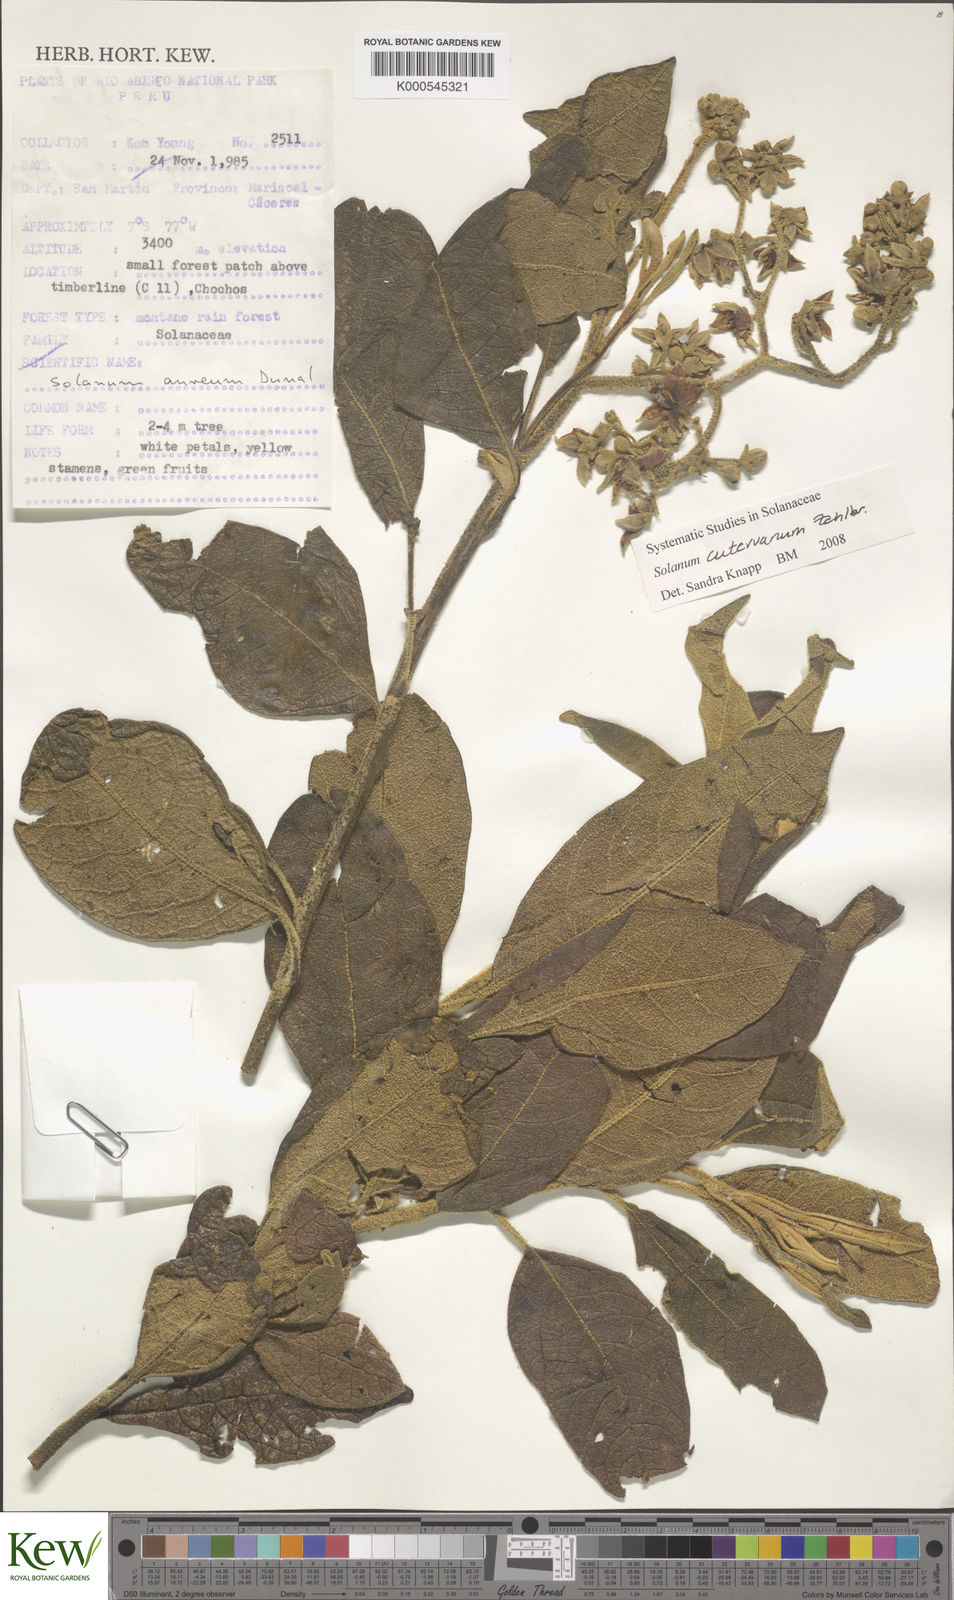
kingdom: Plantae
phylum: Tracheophyta
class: Magnoliopsida
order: Solanales
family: Solanaceae
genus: Solanum
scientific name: Solanum cutervanum
